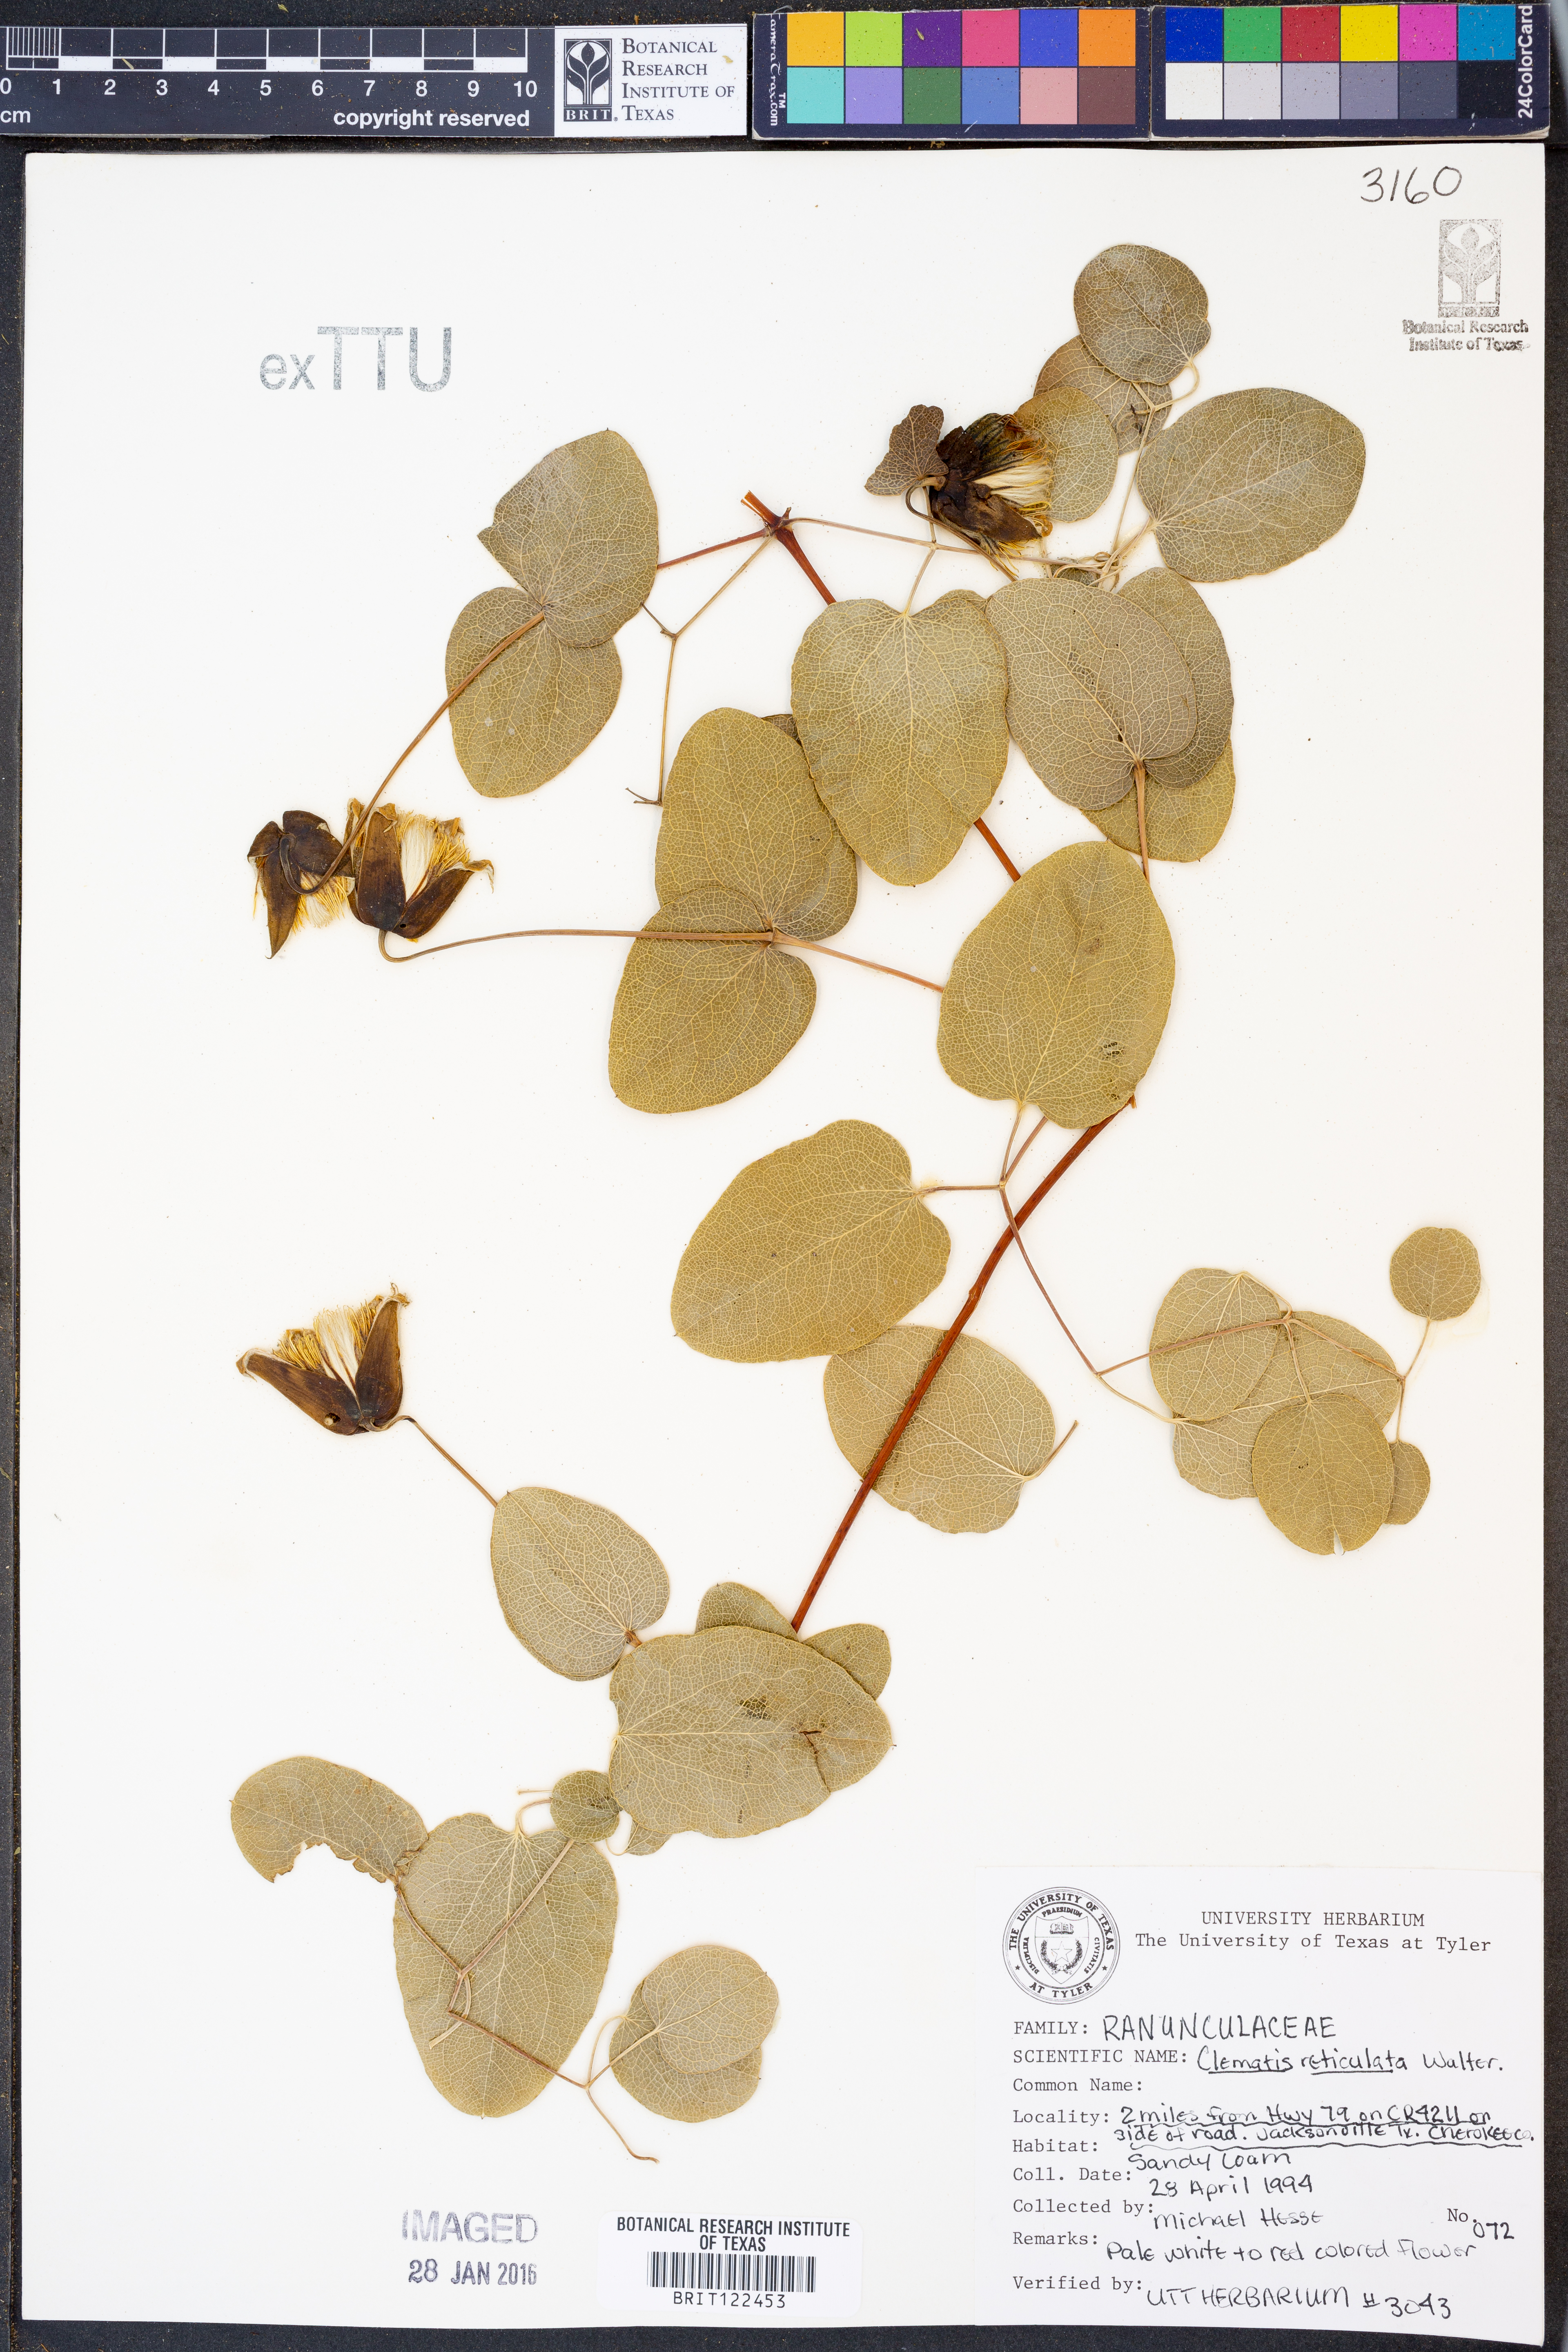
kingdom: Plantae
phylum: Tracheophyta
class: Magnoliopsida
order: Ranunculales
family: Ranunculaceae
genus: Clematis
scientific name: Clematis reticulata
